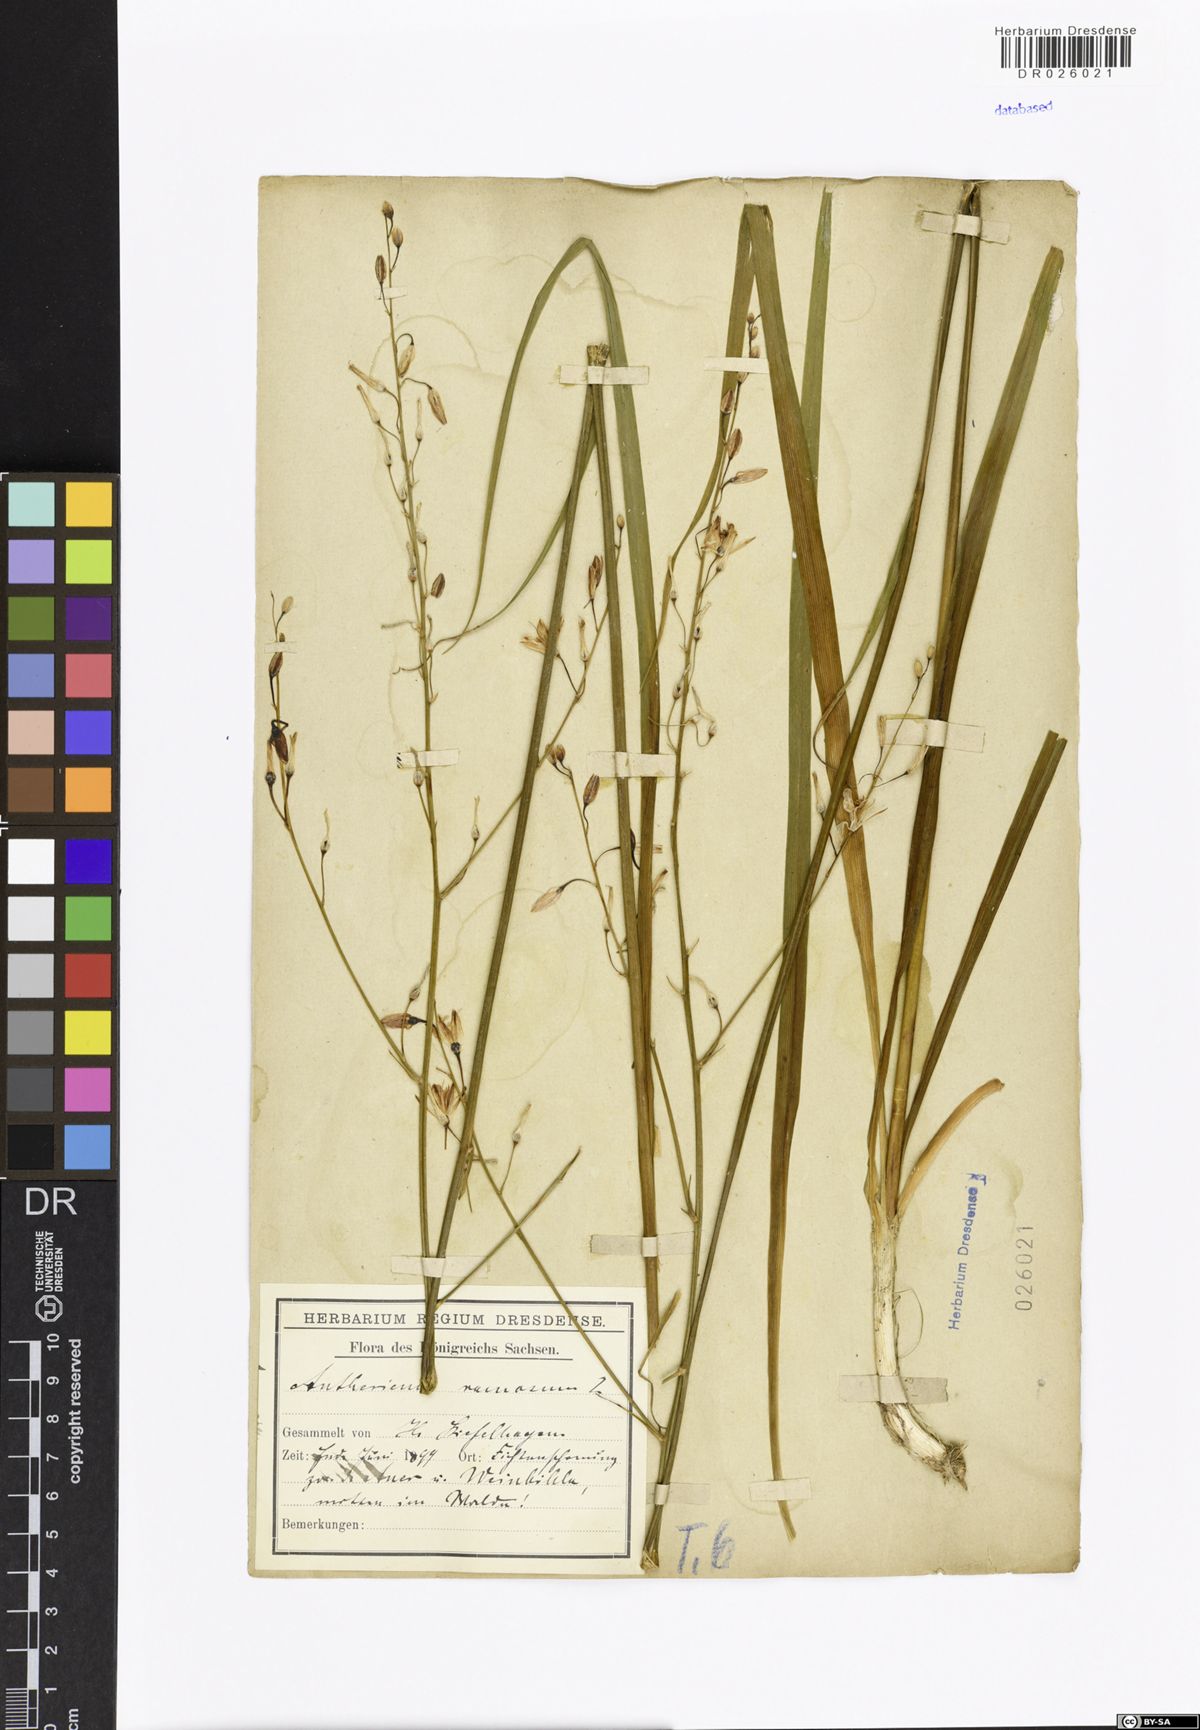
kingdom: Plantae
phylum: Tracheophyta
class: Liliopsida
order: Asparagales
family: Asparagaceae
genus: Anthericum
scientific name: Anthericum ramosum
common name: Branched st. bernard's-lily
